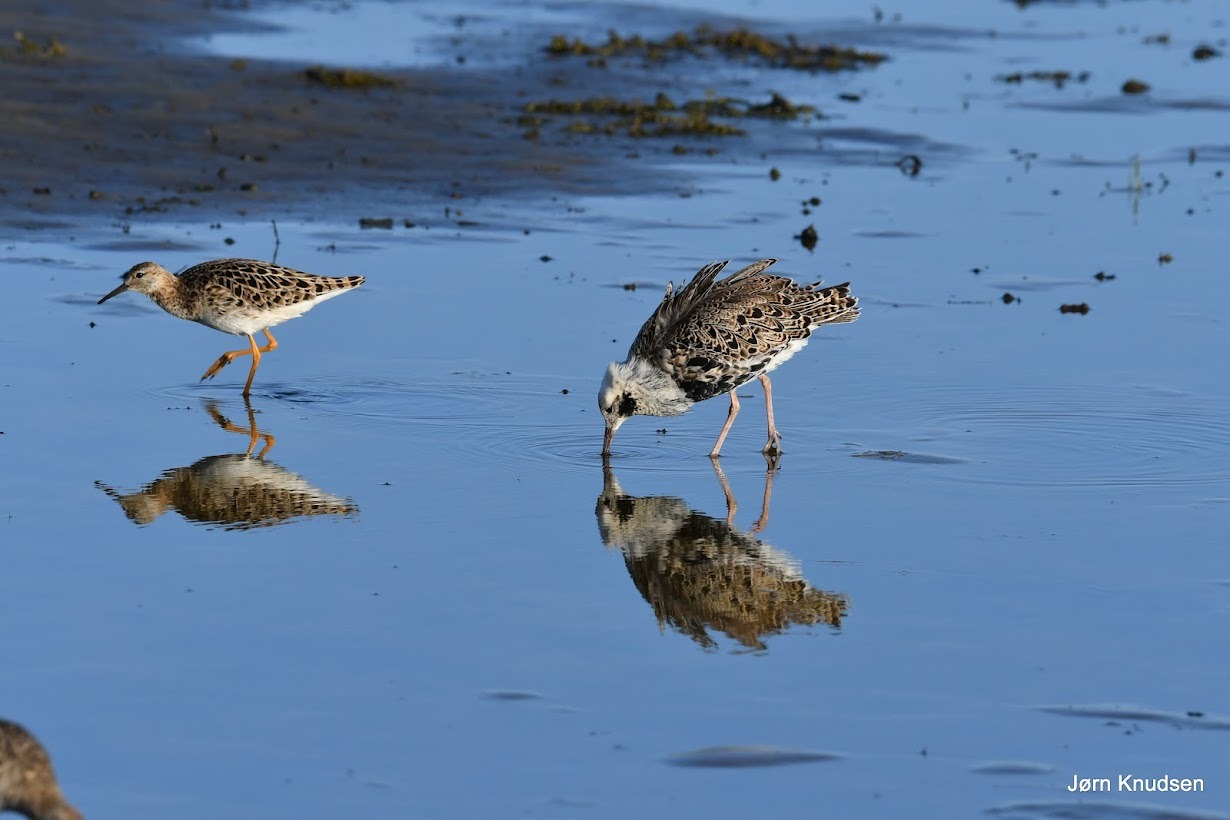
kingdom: Animalia
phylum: Chordata
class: Aves
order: Charadriiformes
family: Scolopacidae
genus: Calidris
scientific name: Calidris pugnax
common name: Brushane
